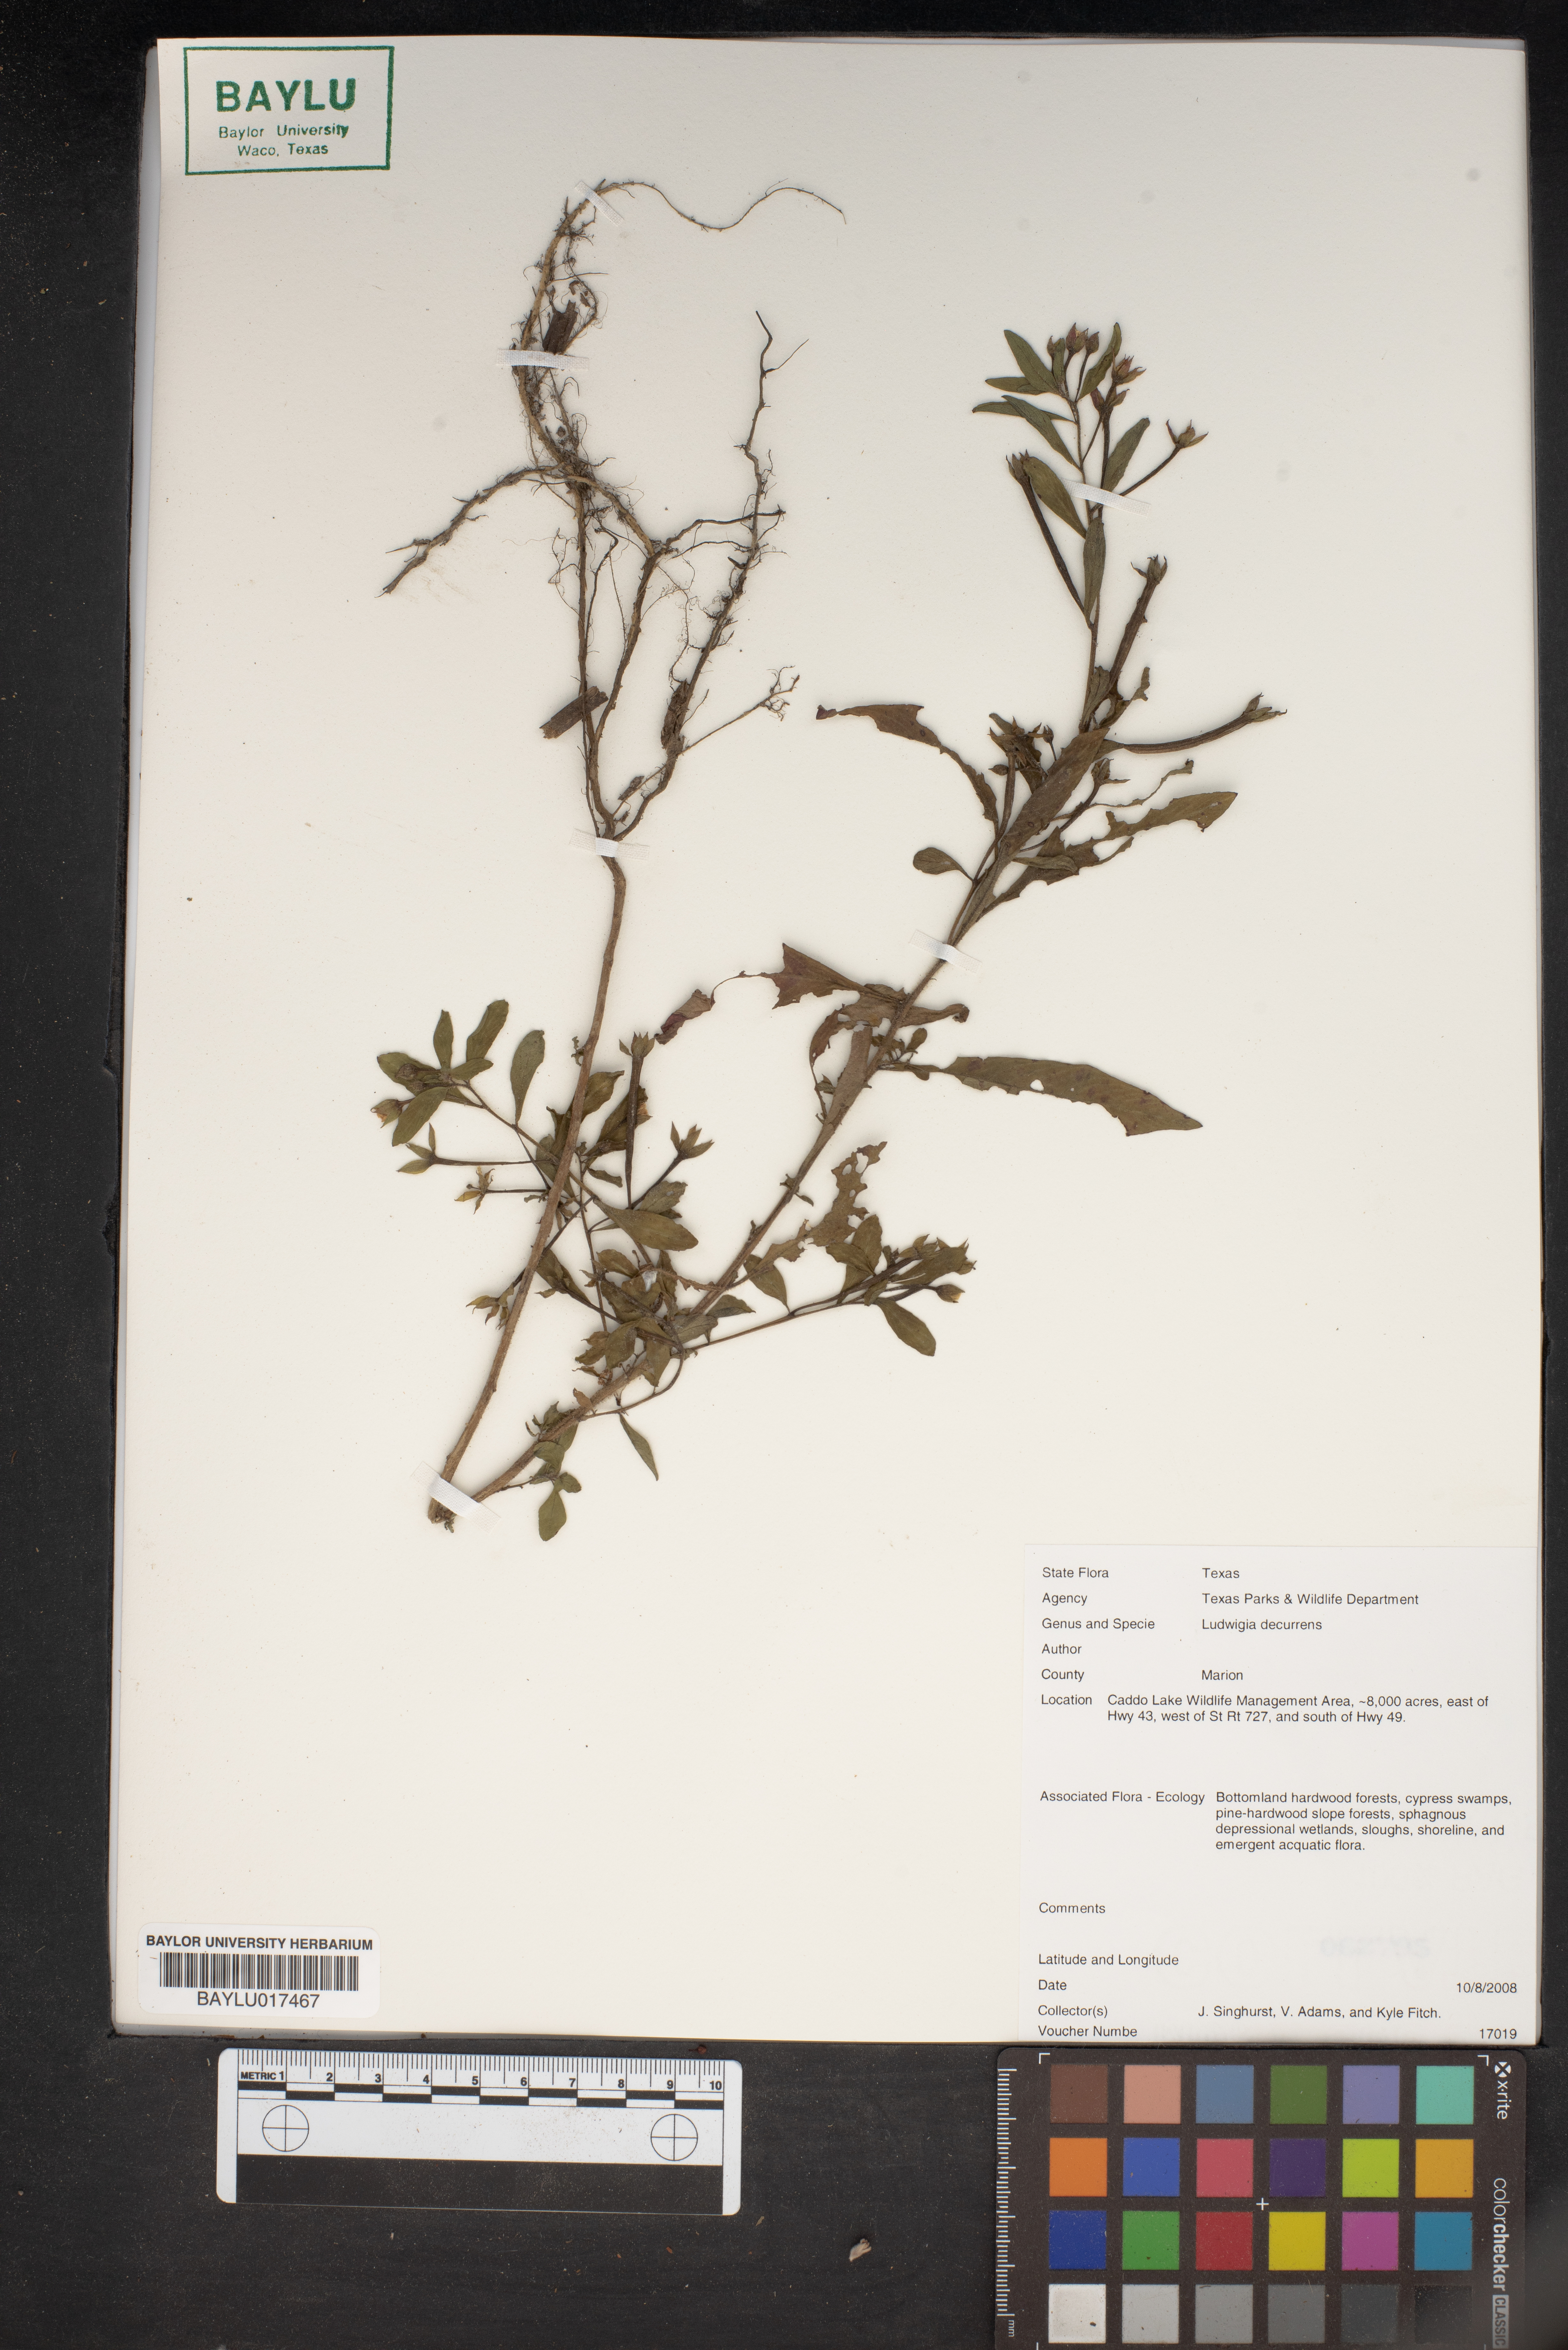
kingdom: Plantae
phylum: Tracheophyta
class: Magnoliopsida
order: Myrtales
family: Onagraceae
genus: Ludwigia
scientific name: Ludwigia decurrens
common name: Winged water-primrose
